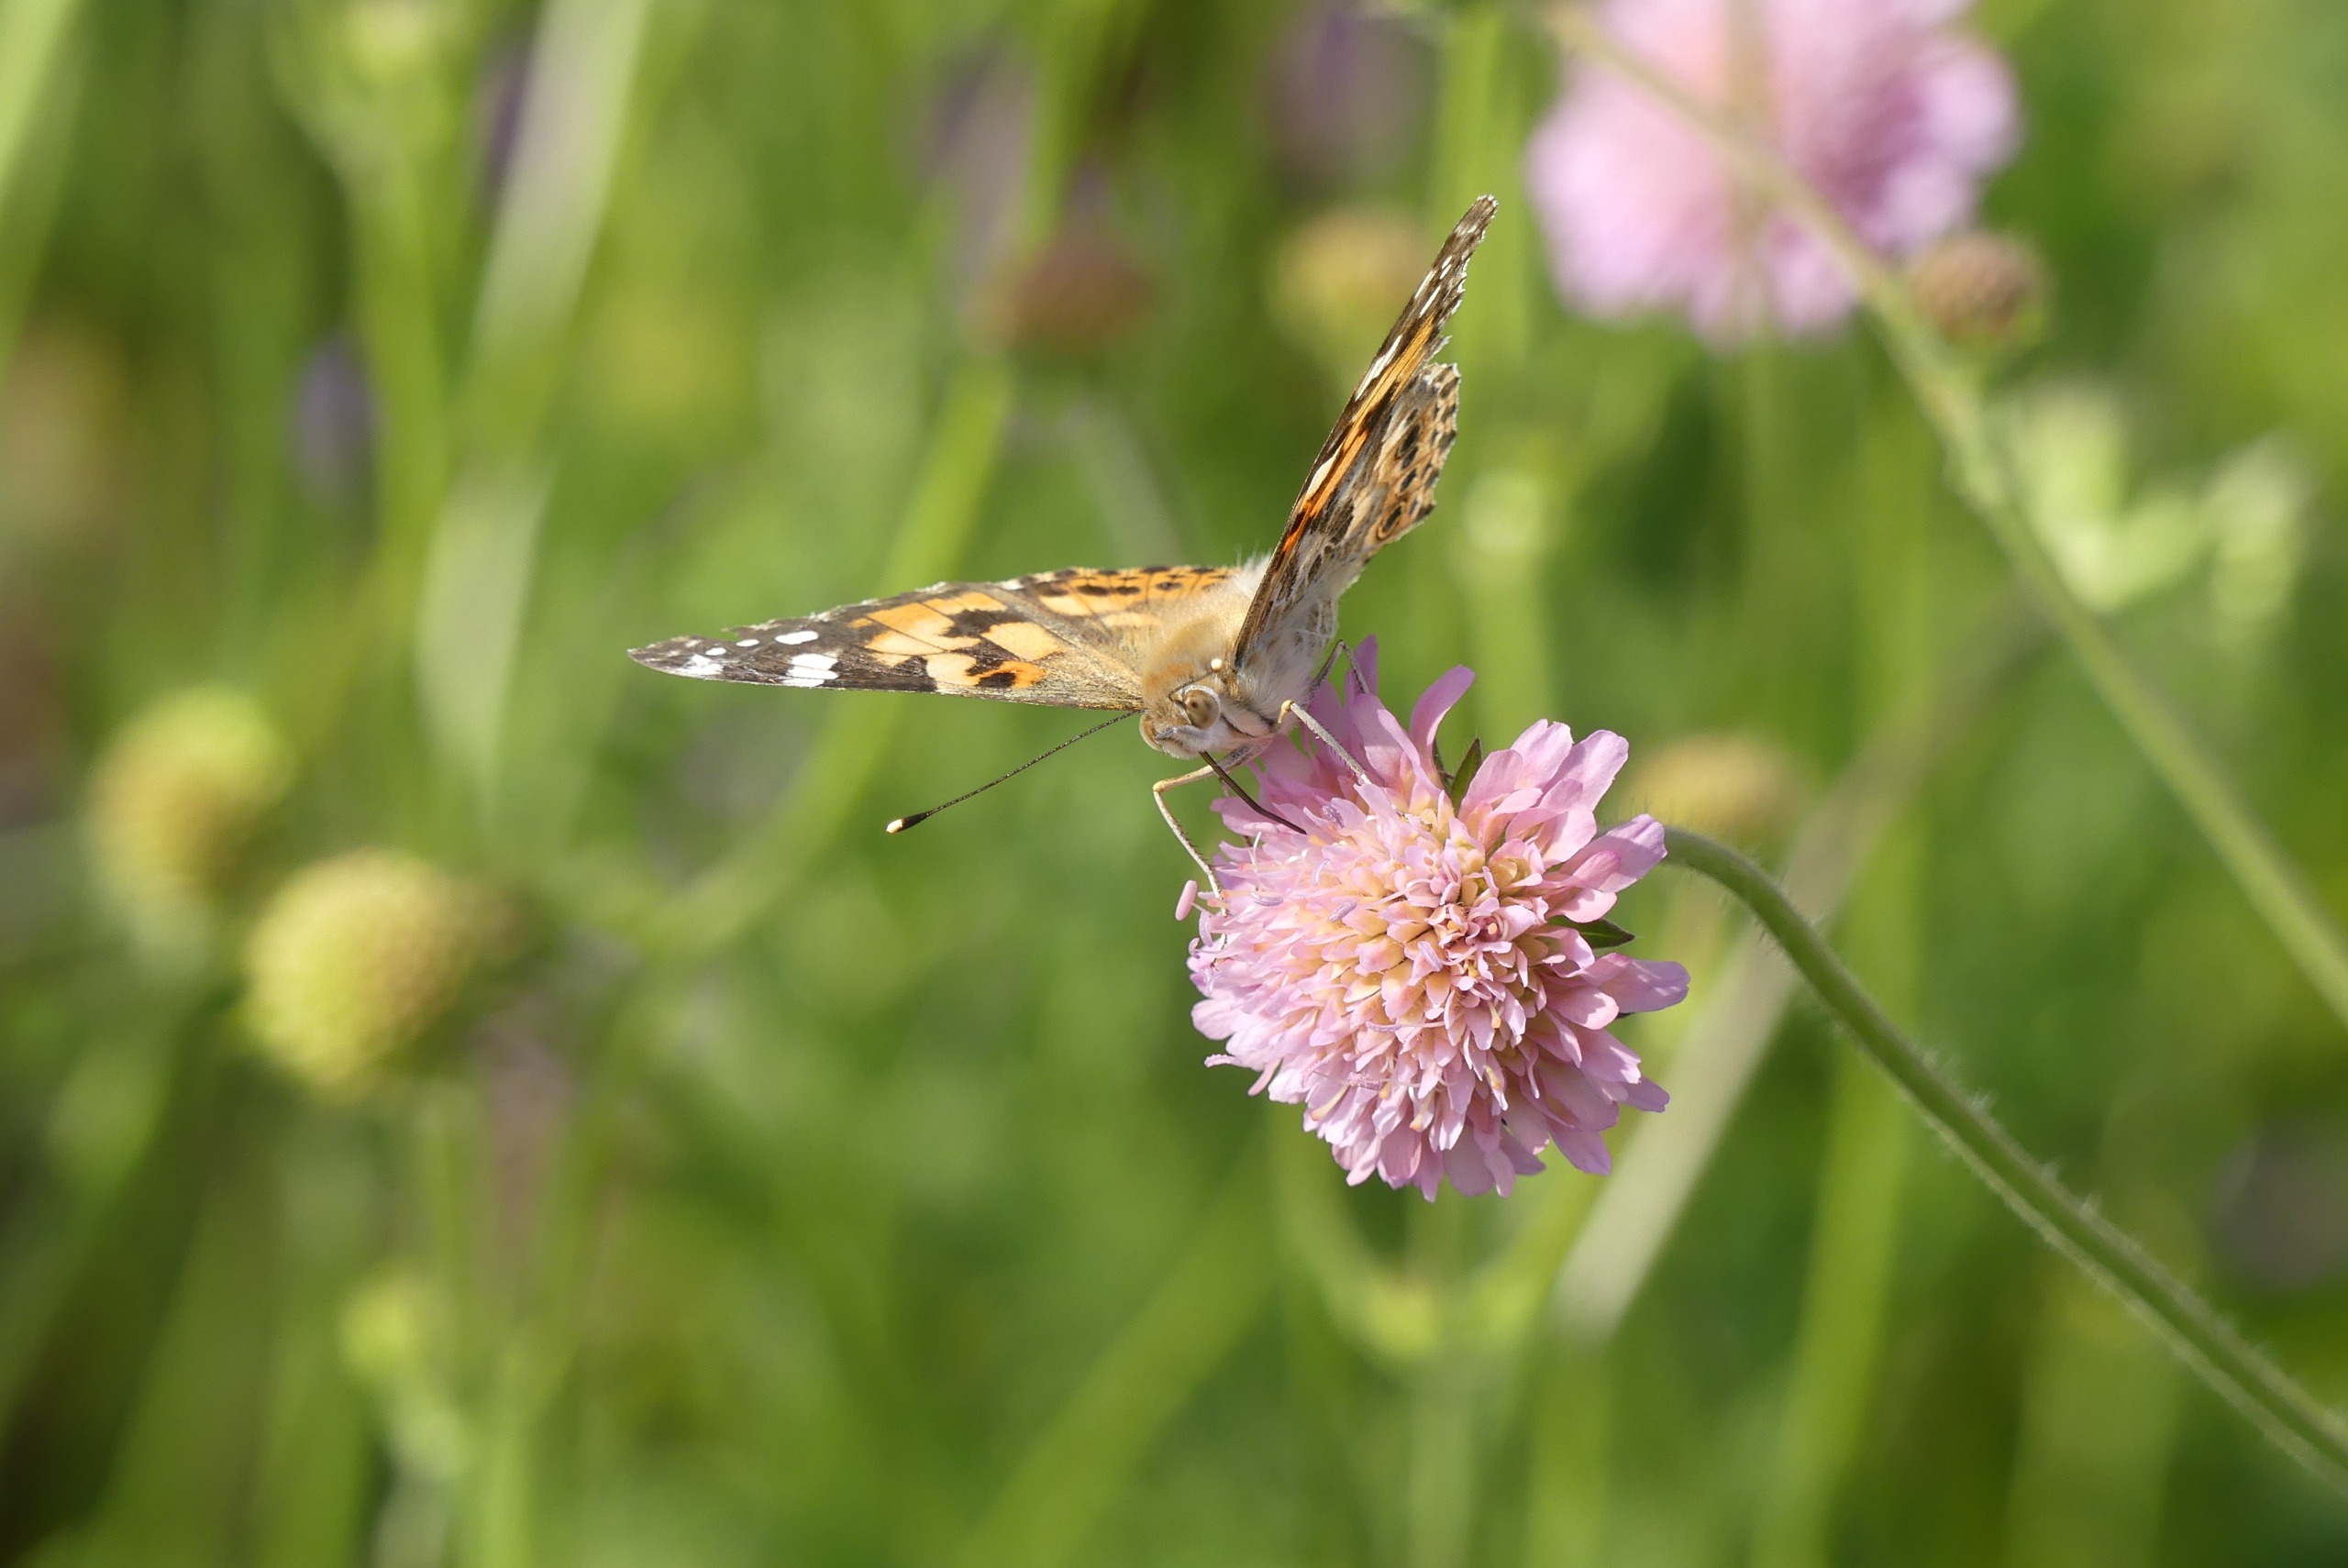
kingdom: Animalia
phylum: Arthropoda
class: Insecta
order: Lepidoptera
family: Nymphalidae
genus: Vanessa
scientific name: Vanessa cardui
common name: Tidselsommerfugl
